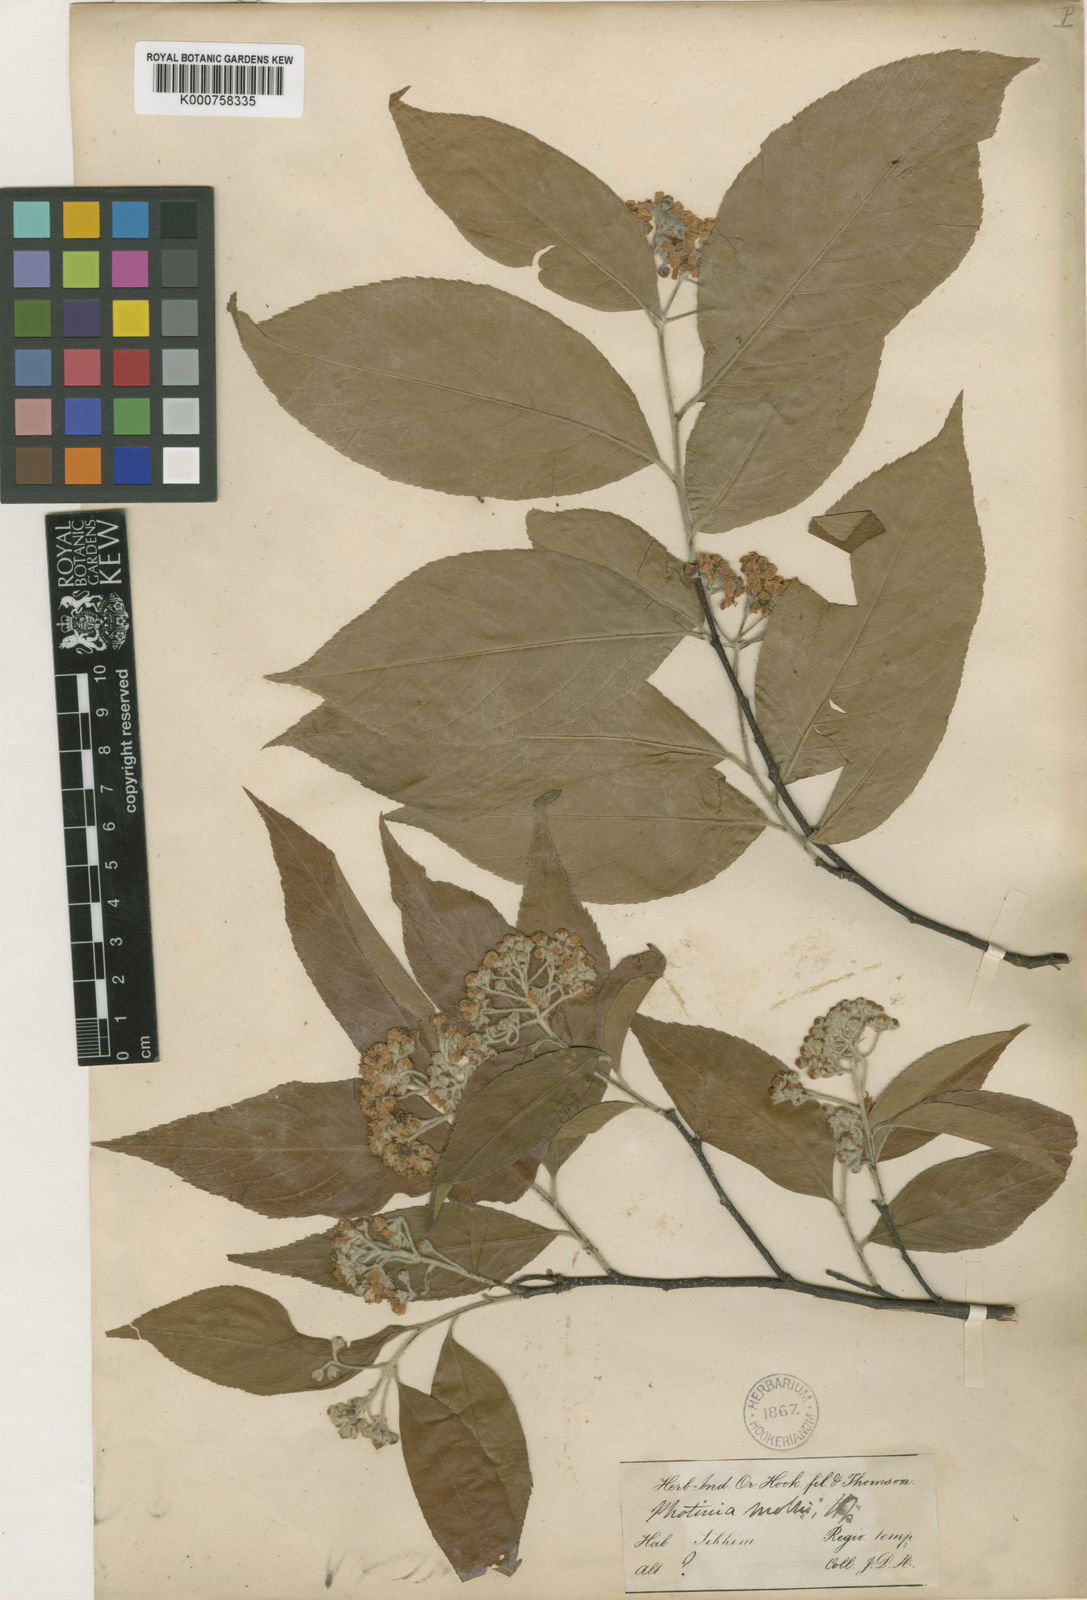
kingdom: Plantae
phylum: Tracheophyta
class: Magnoliopsida
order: Rosales
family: Rosaceae
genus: Photinia
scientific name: Photinia
